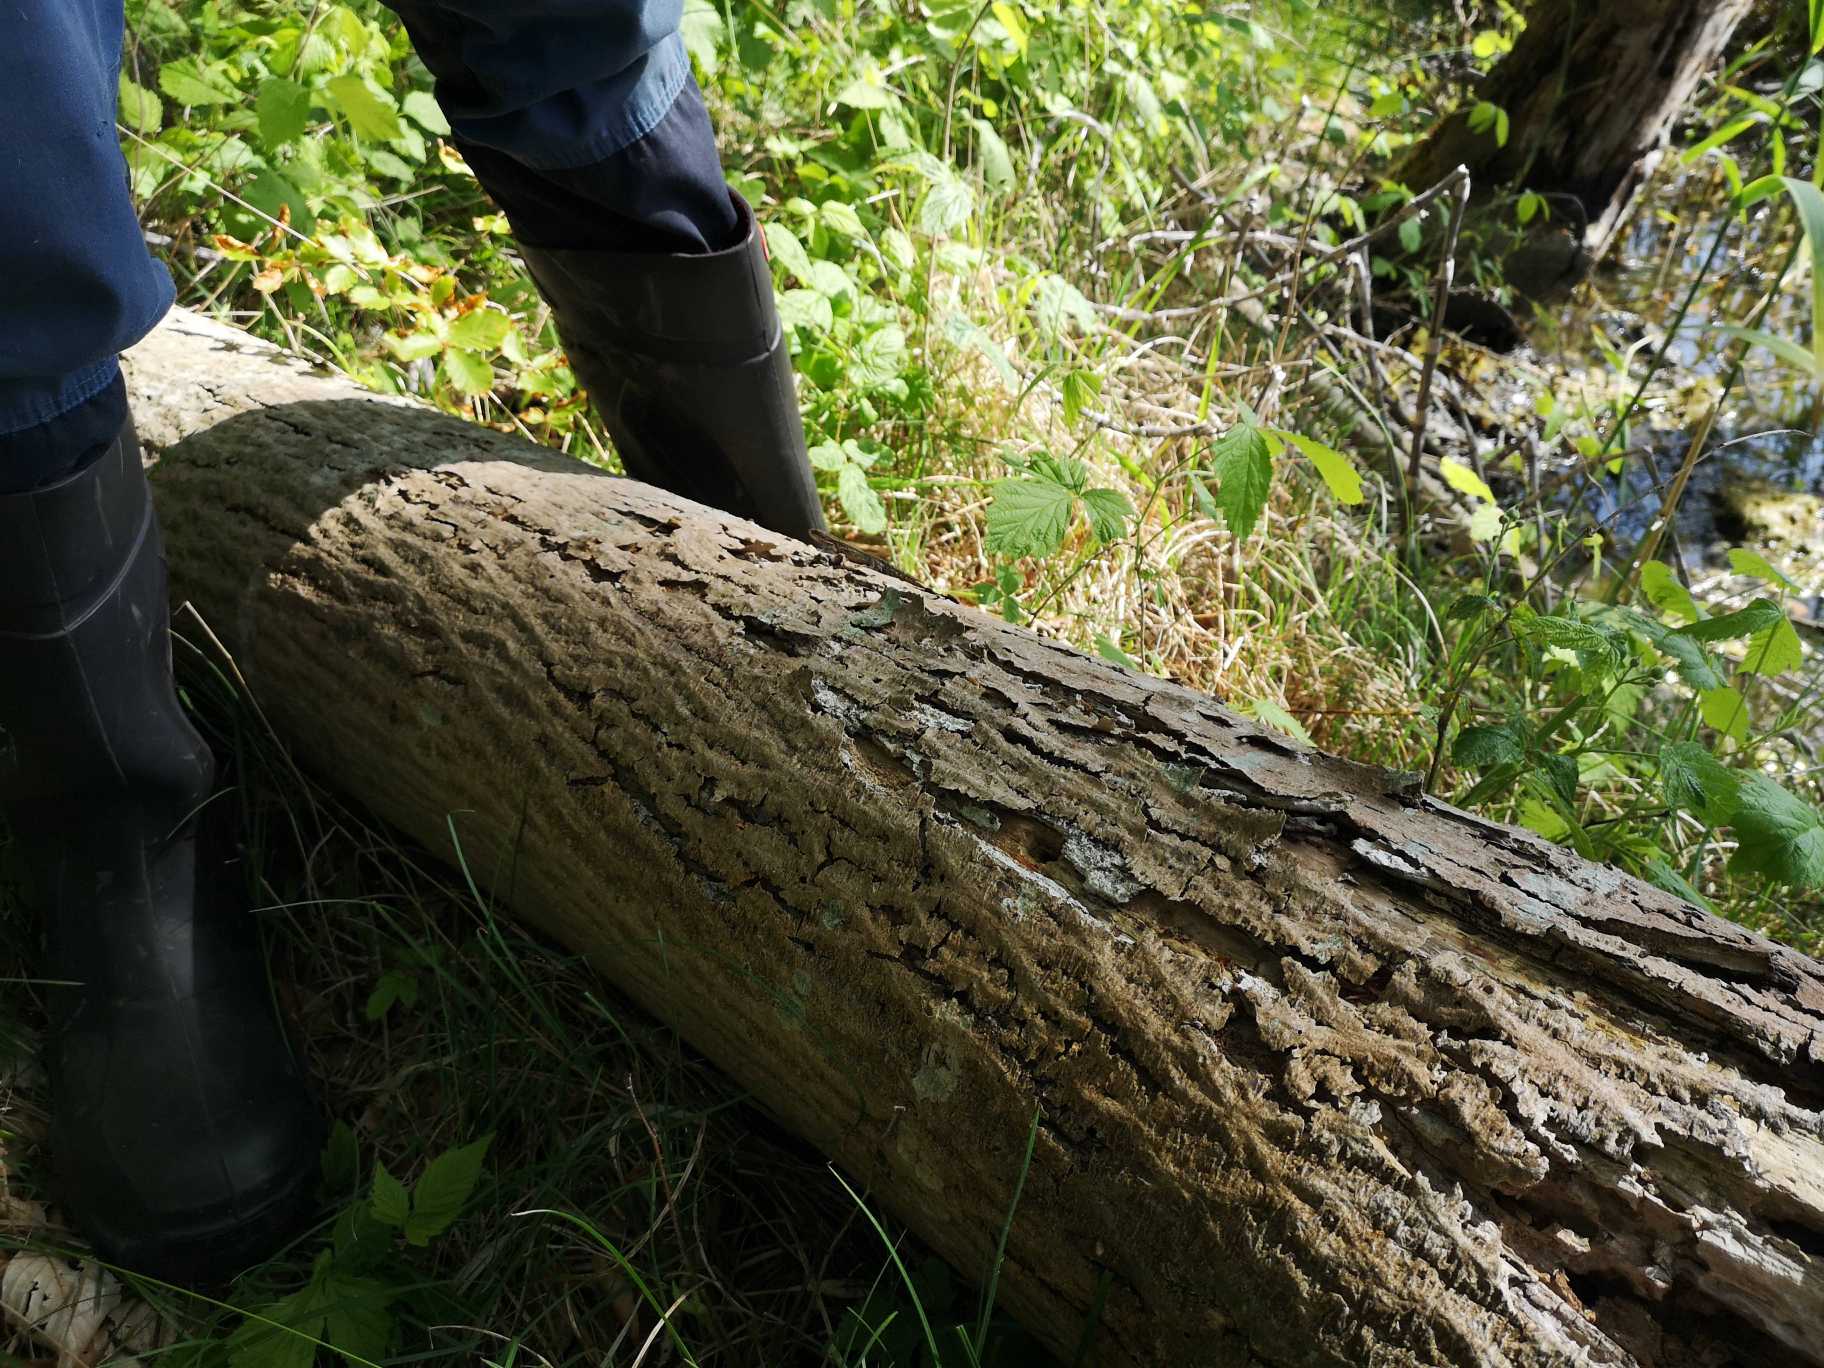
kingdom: Animalia
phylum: Chordata
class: Squamata
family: Lacertidae
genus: Zootoca
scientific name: Zootoca vivipara
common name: Skovfirben
